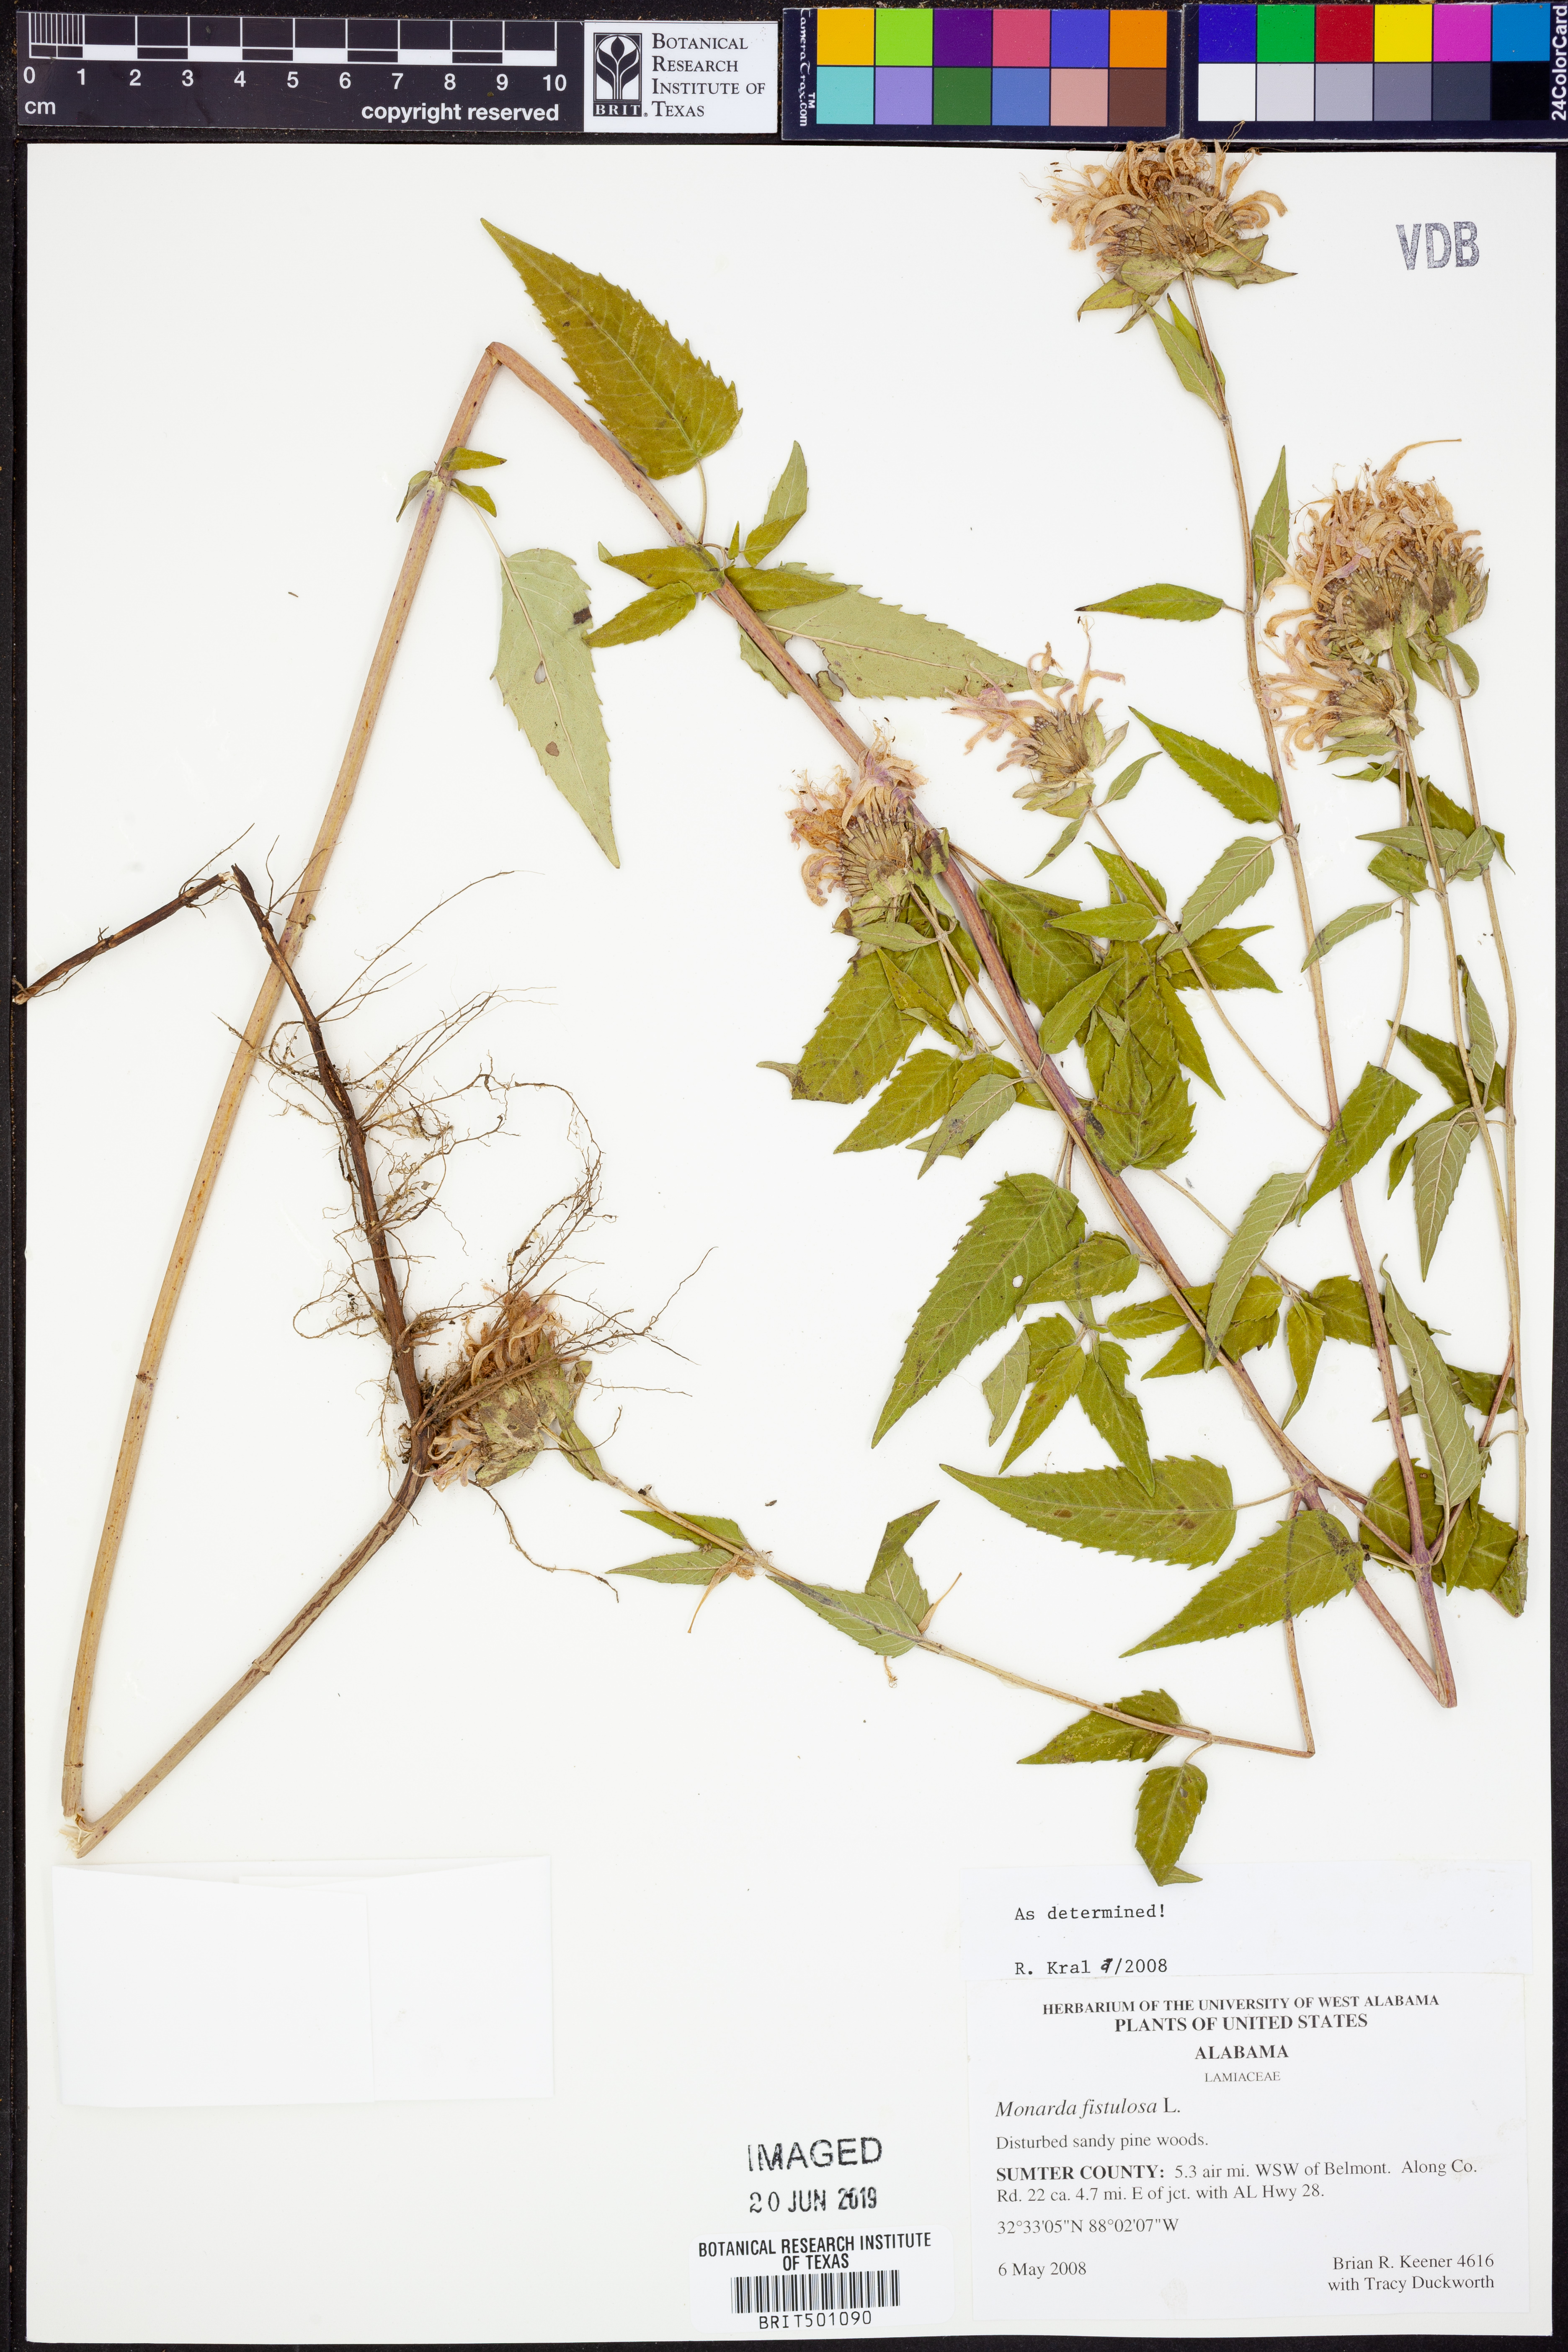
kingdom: Plantae
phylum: Tracheophyta
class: Magnoliopsida
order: Lamiales
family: Lamiaceae
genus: Monarda
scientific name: Monarda fistulosa
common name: Purple beebalm
